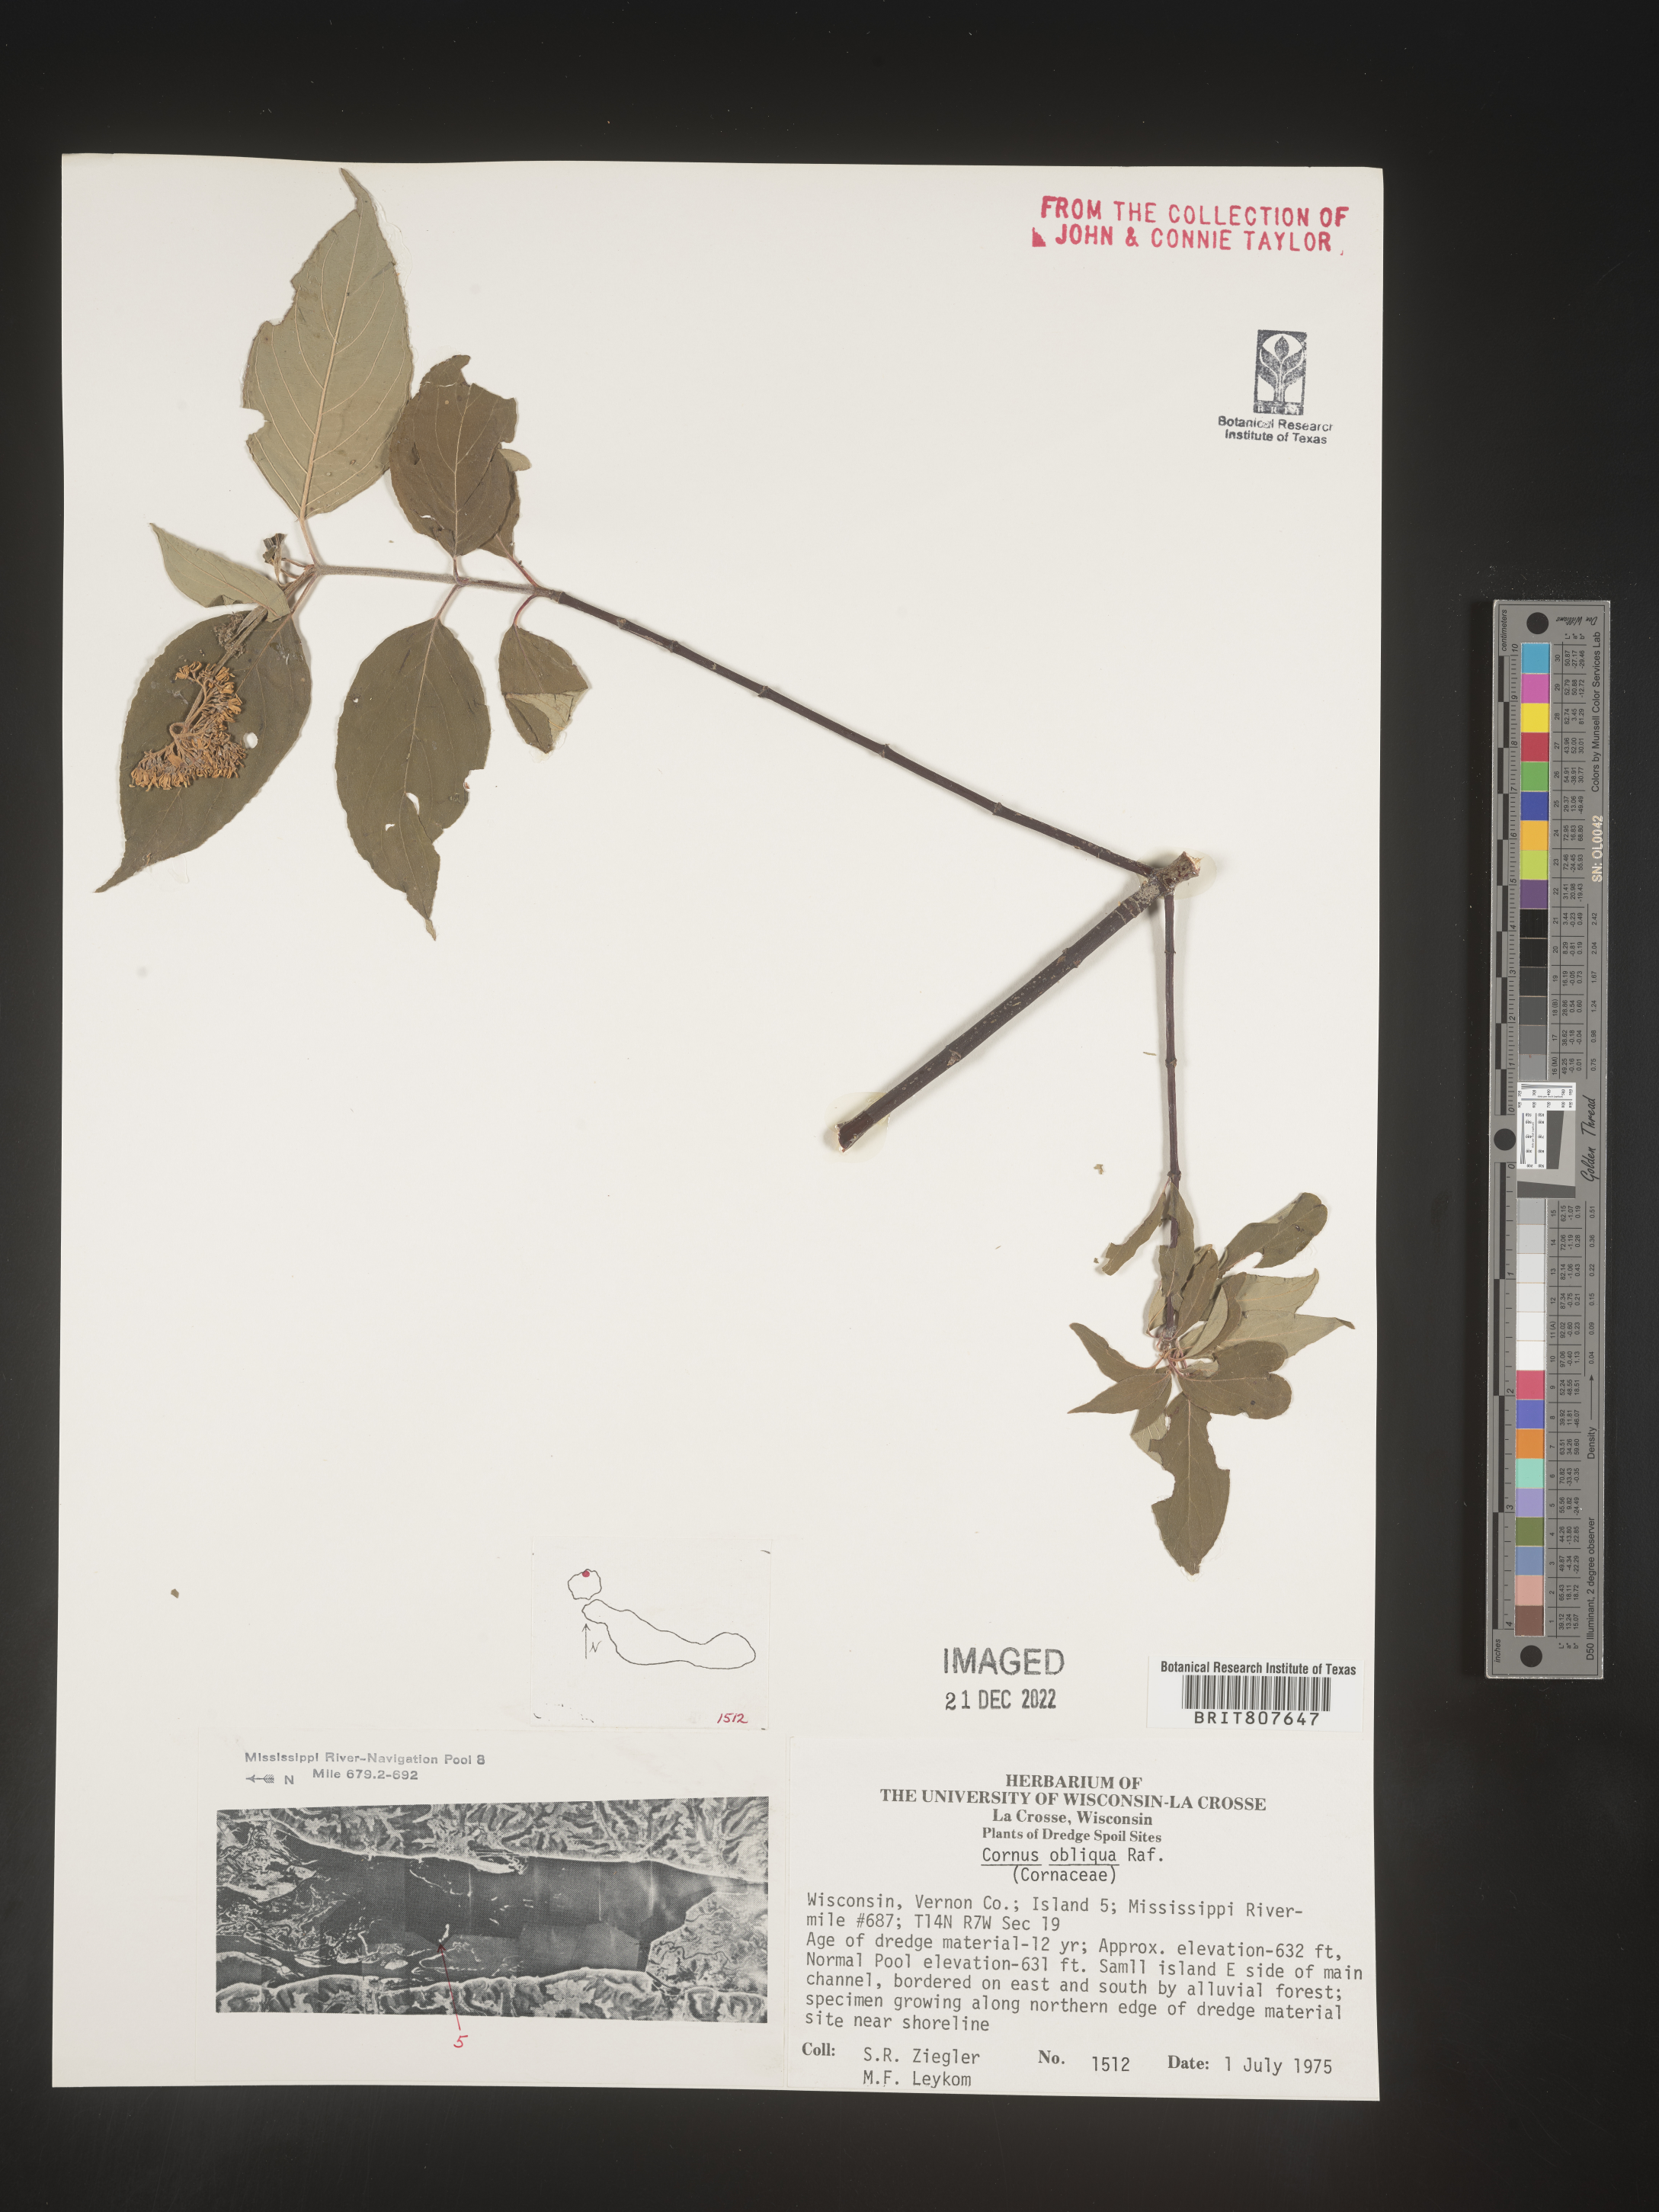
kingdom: Plantae
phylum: Tracheophyta
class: Magnoliopsida
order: Cornales
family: Cornaceae
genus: Cornus
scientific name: Cornus obliqua
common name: Pale dogwood
